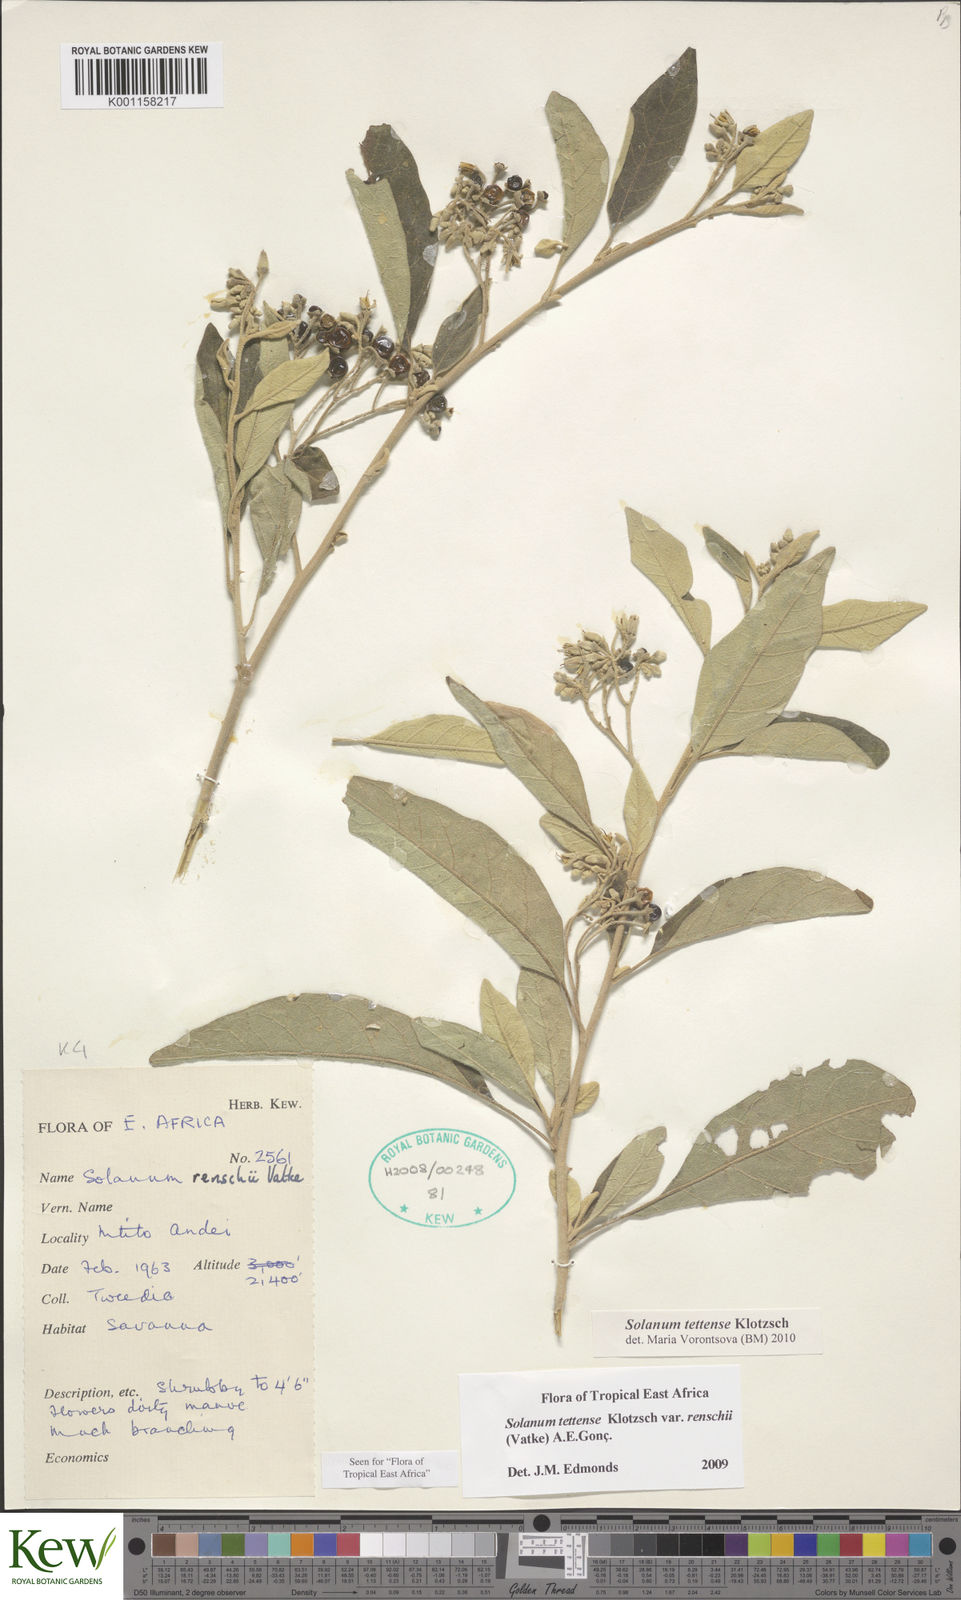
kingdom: Plantae
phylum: Tracheophyta
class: Magnoliopsida
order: Solanales
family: Solanaceae
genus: Solanum
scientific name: Solanum tettense
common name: Mozambique bitter apple
